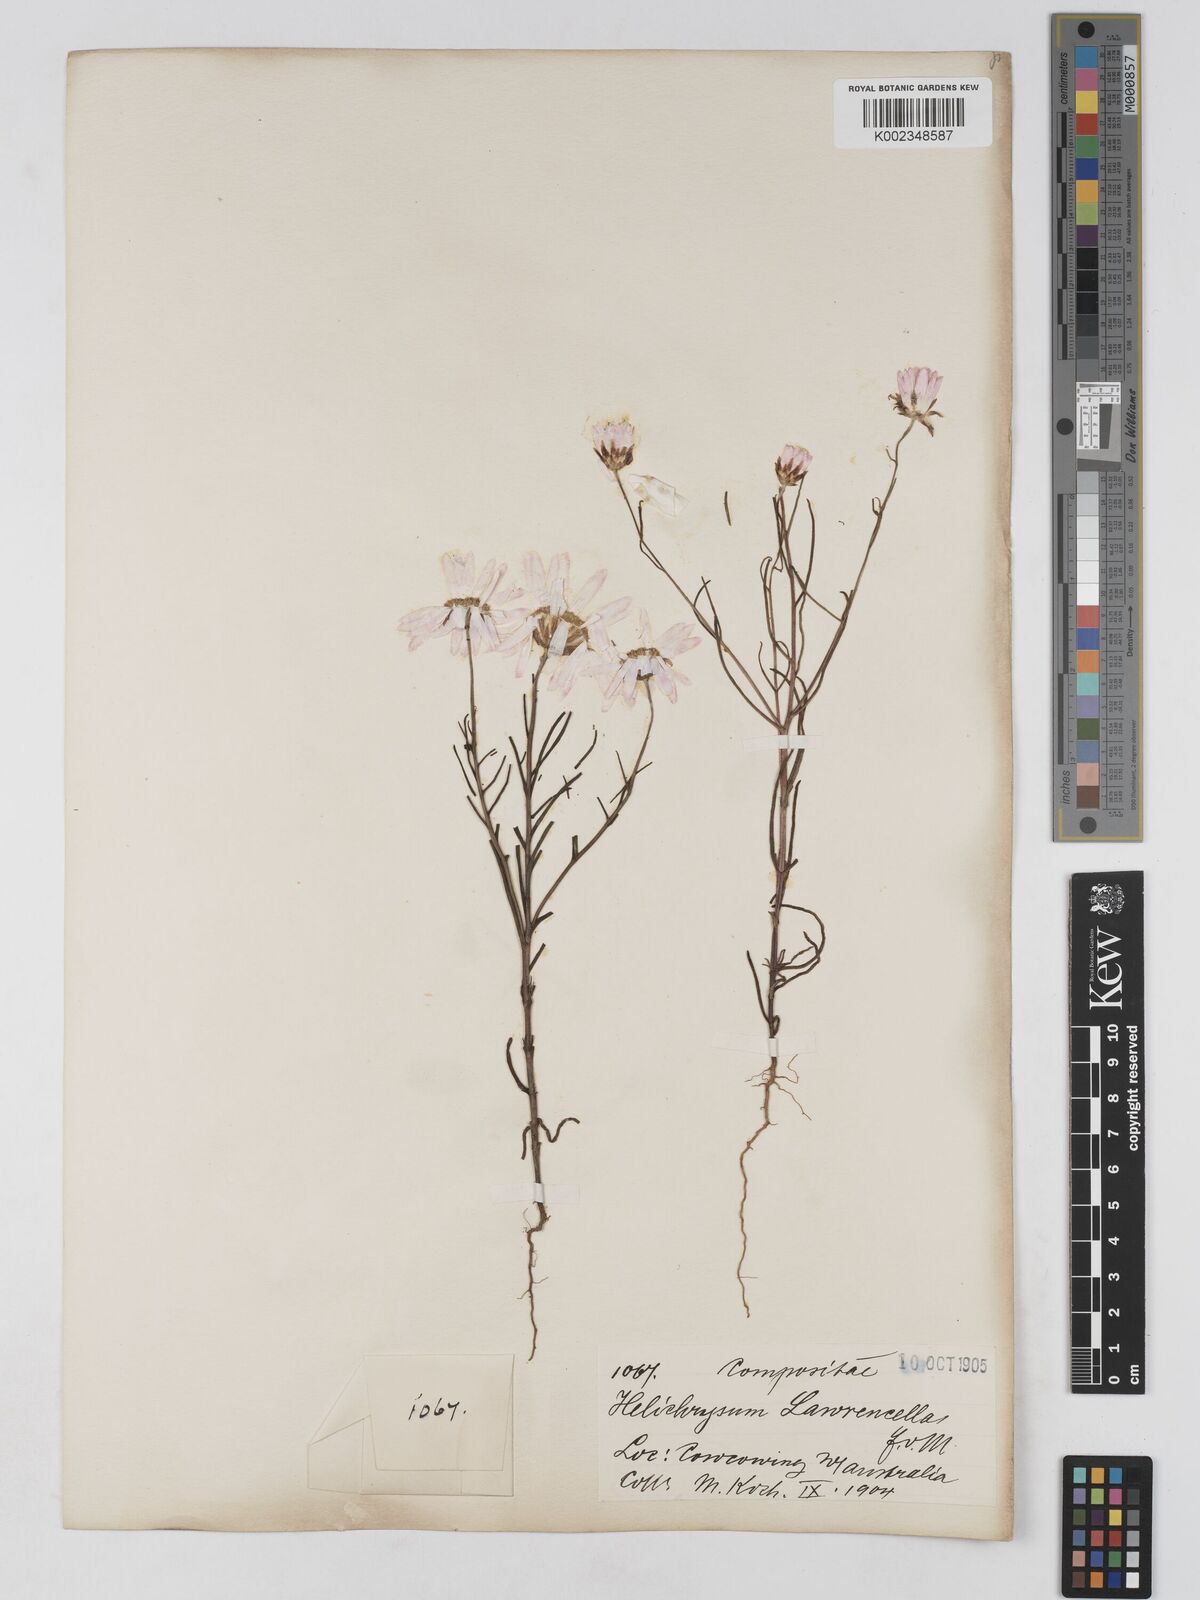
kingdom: Plantae
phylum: Tracheophyta
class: Magnoliopsida
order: Asterales
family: Asteraceae
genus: Lawrencella
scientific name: Lawrencella rosea
